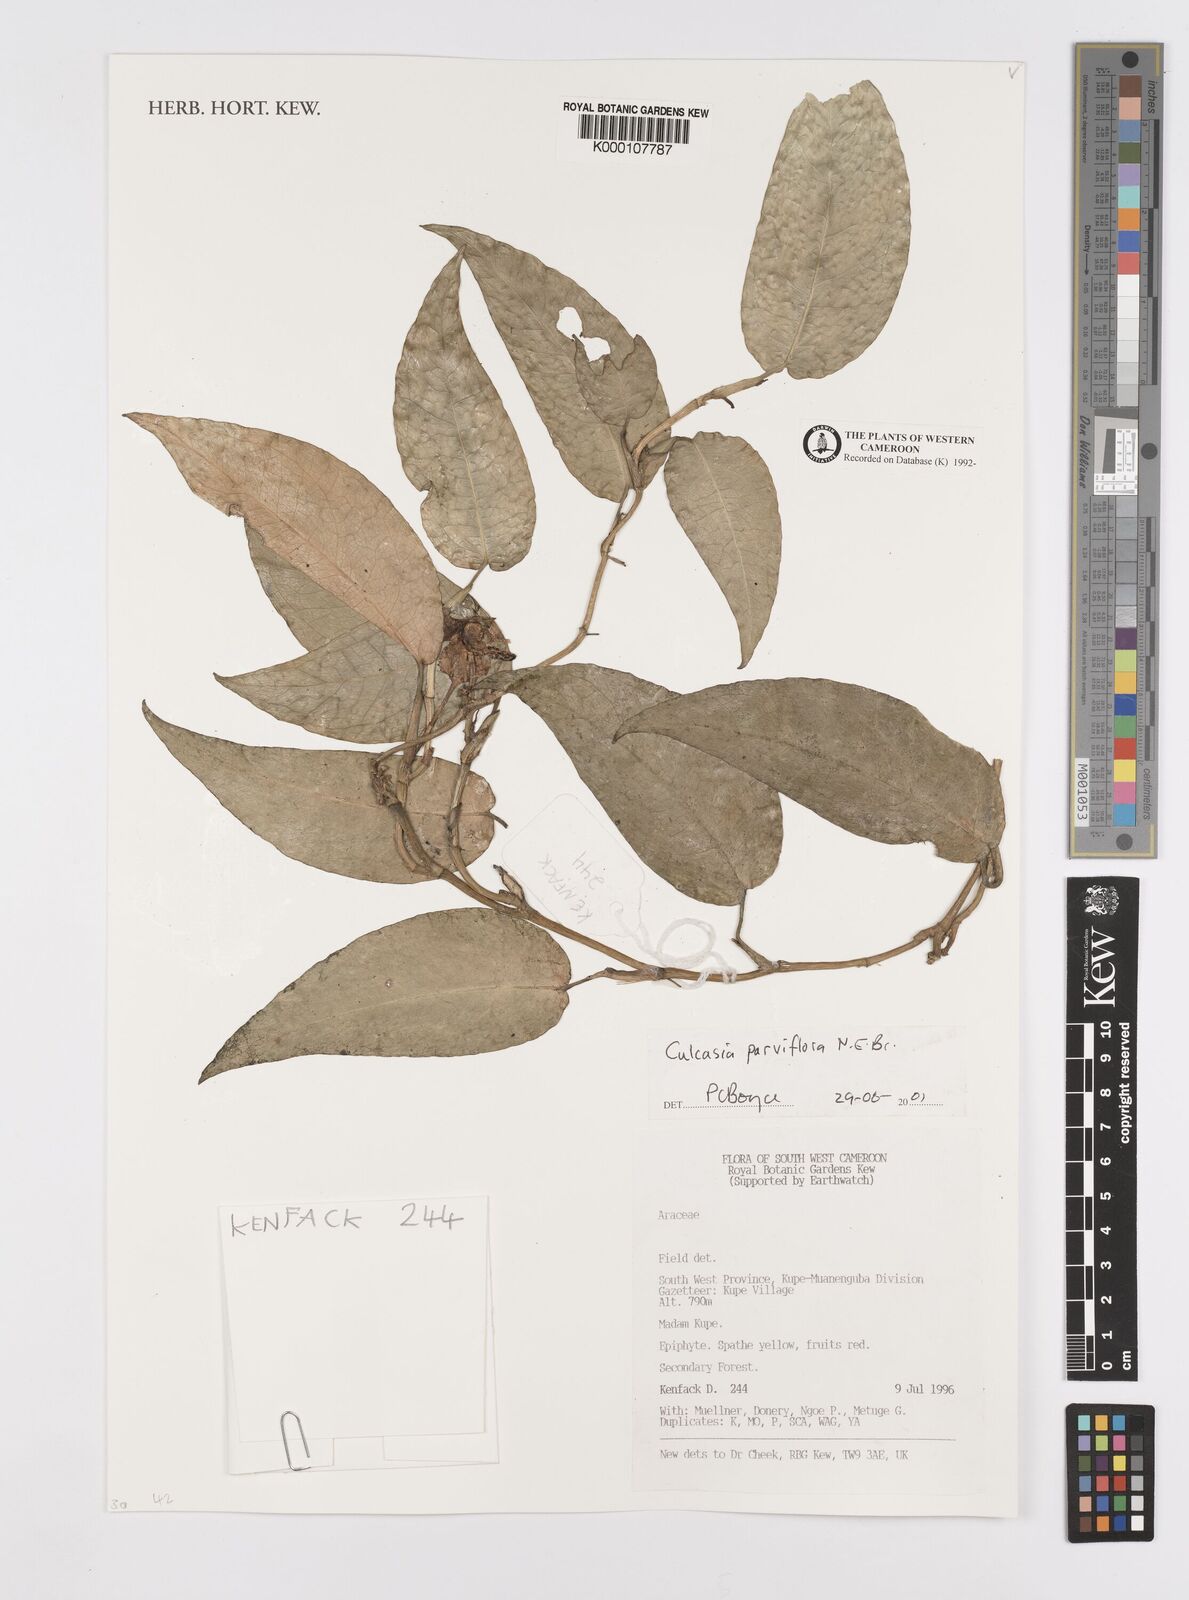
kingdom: Plantae
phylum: Tracheophyta
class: Liliopsida
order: Alismatales
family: Araceae
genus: Culcasia
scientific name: Culcasia parviflora
